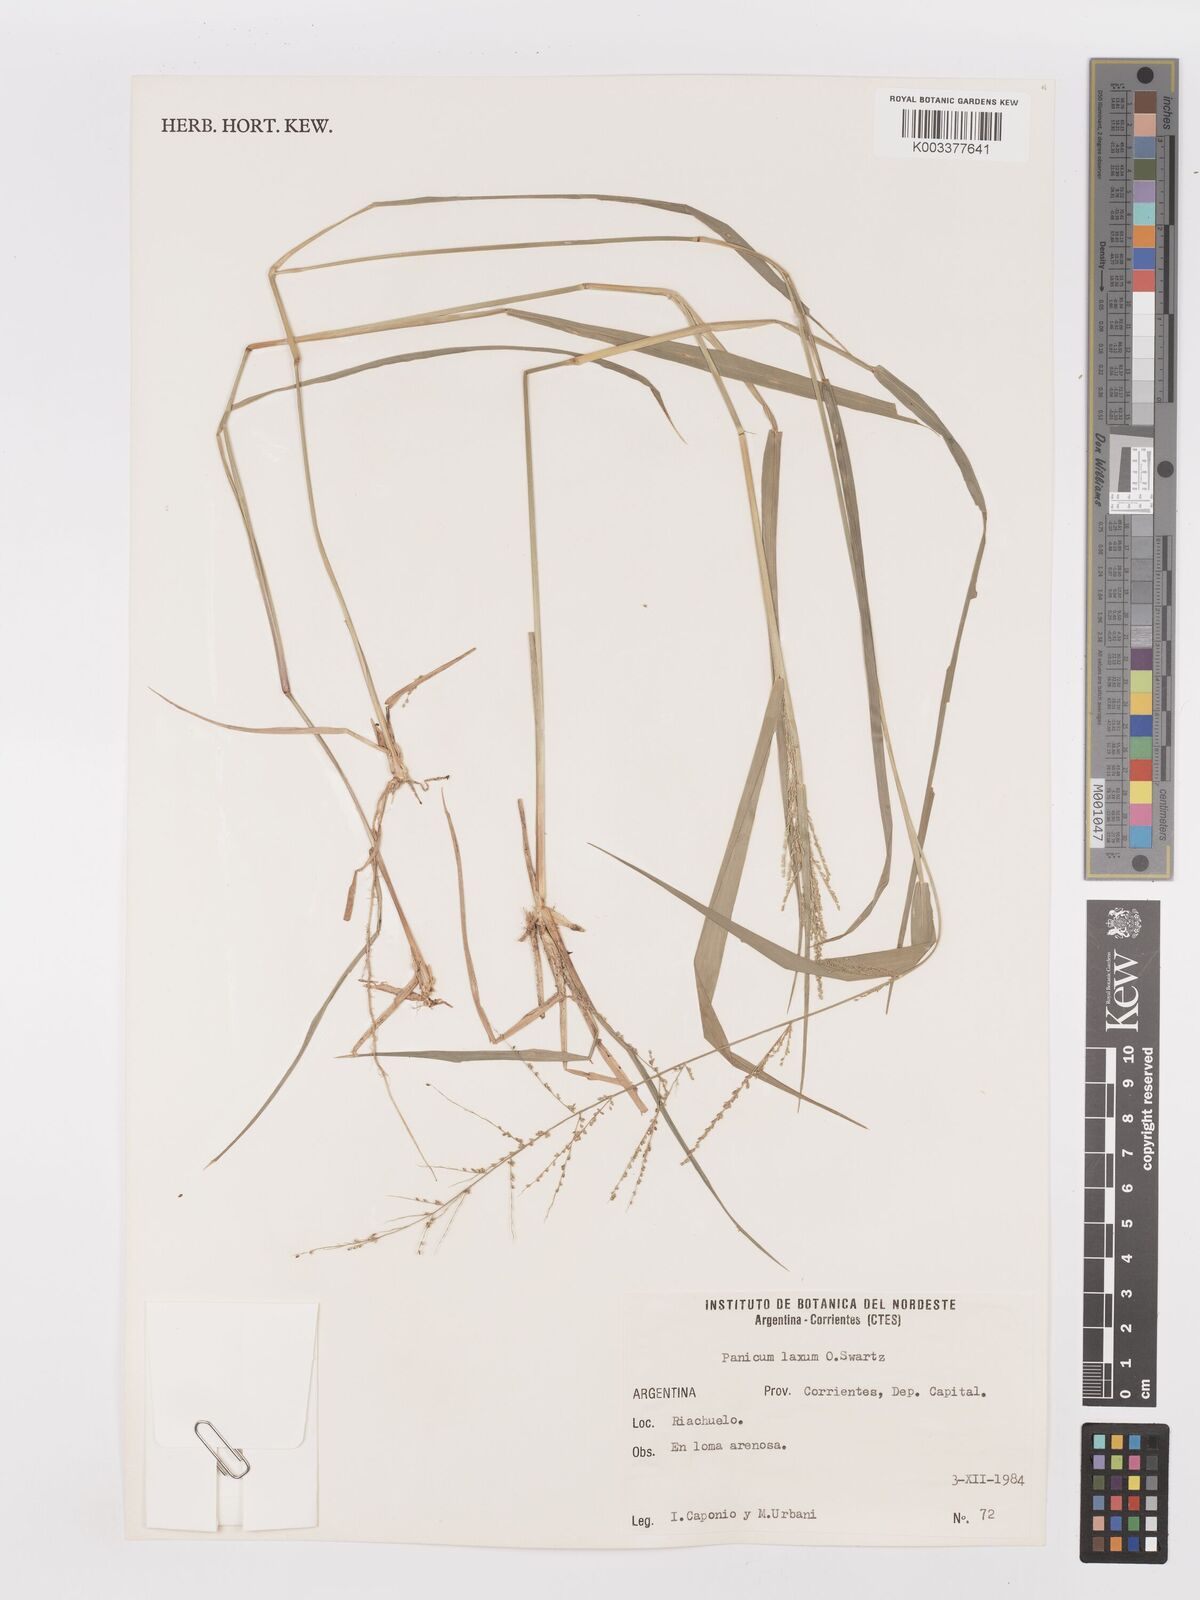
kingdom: Plantae
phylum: Tracheophyta
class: Liliopsida
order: Poales
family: Poaceae
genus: Steinchisma
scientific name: Steinchisma laxum
